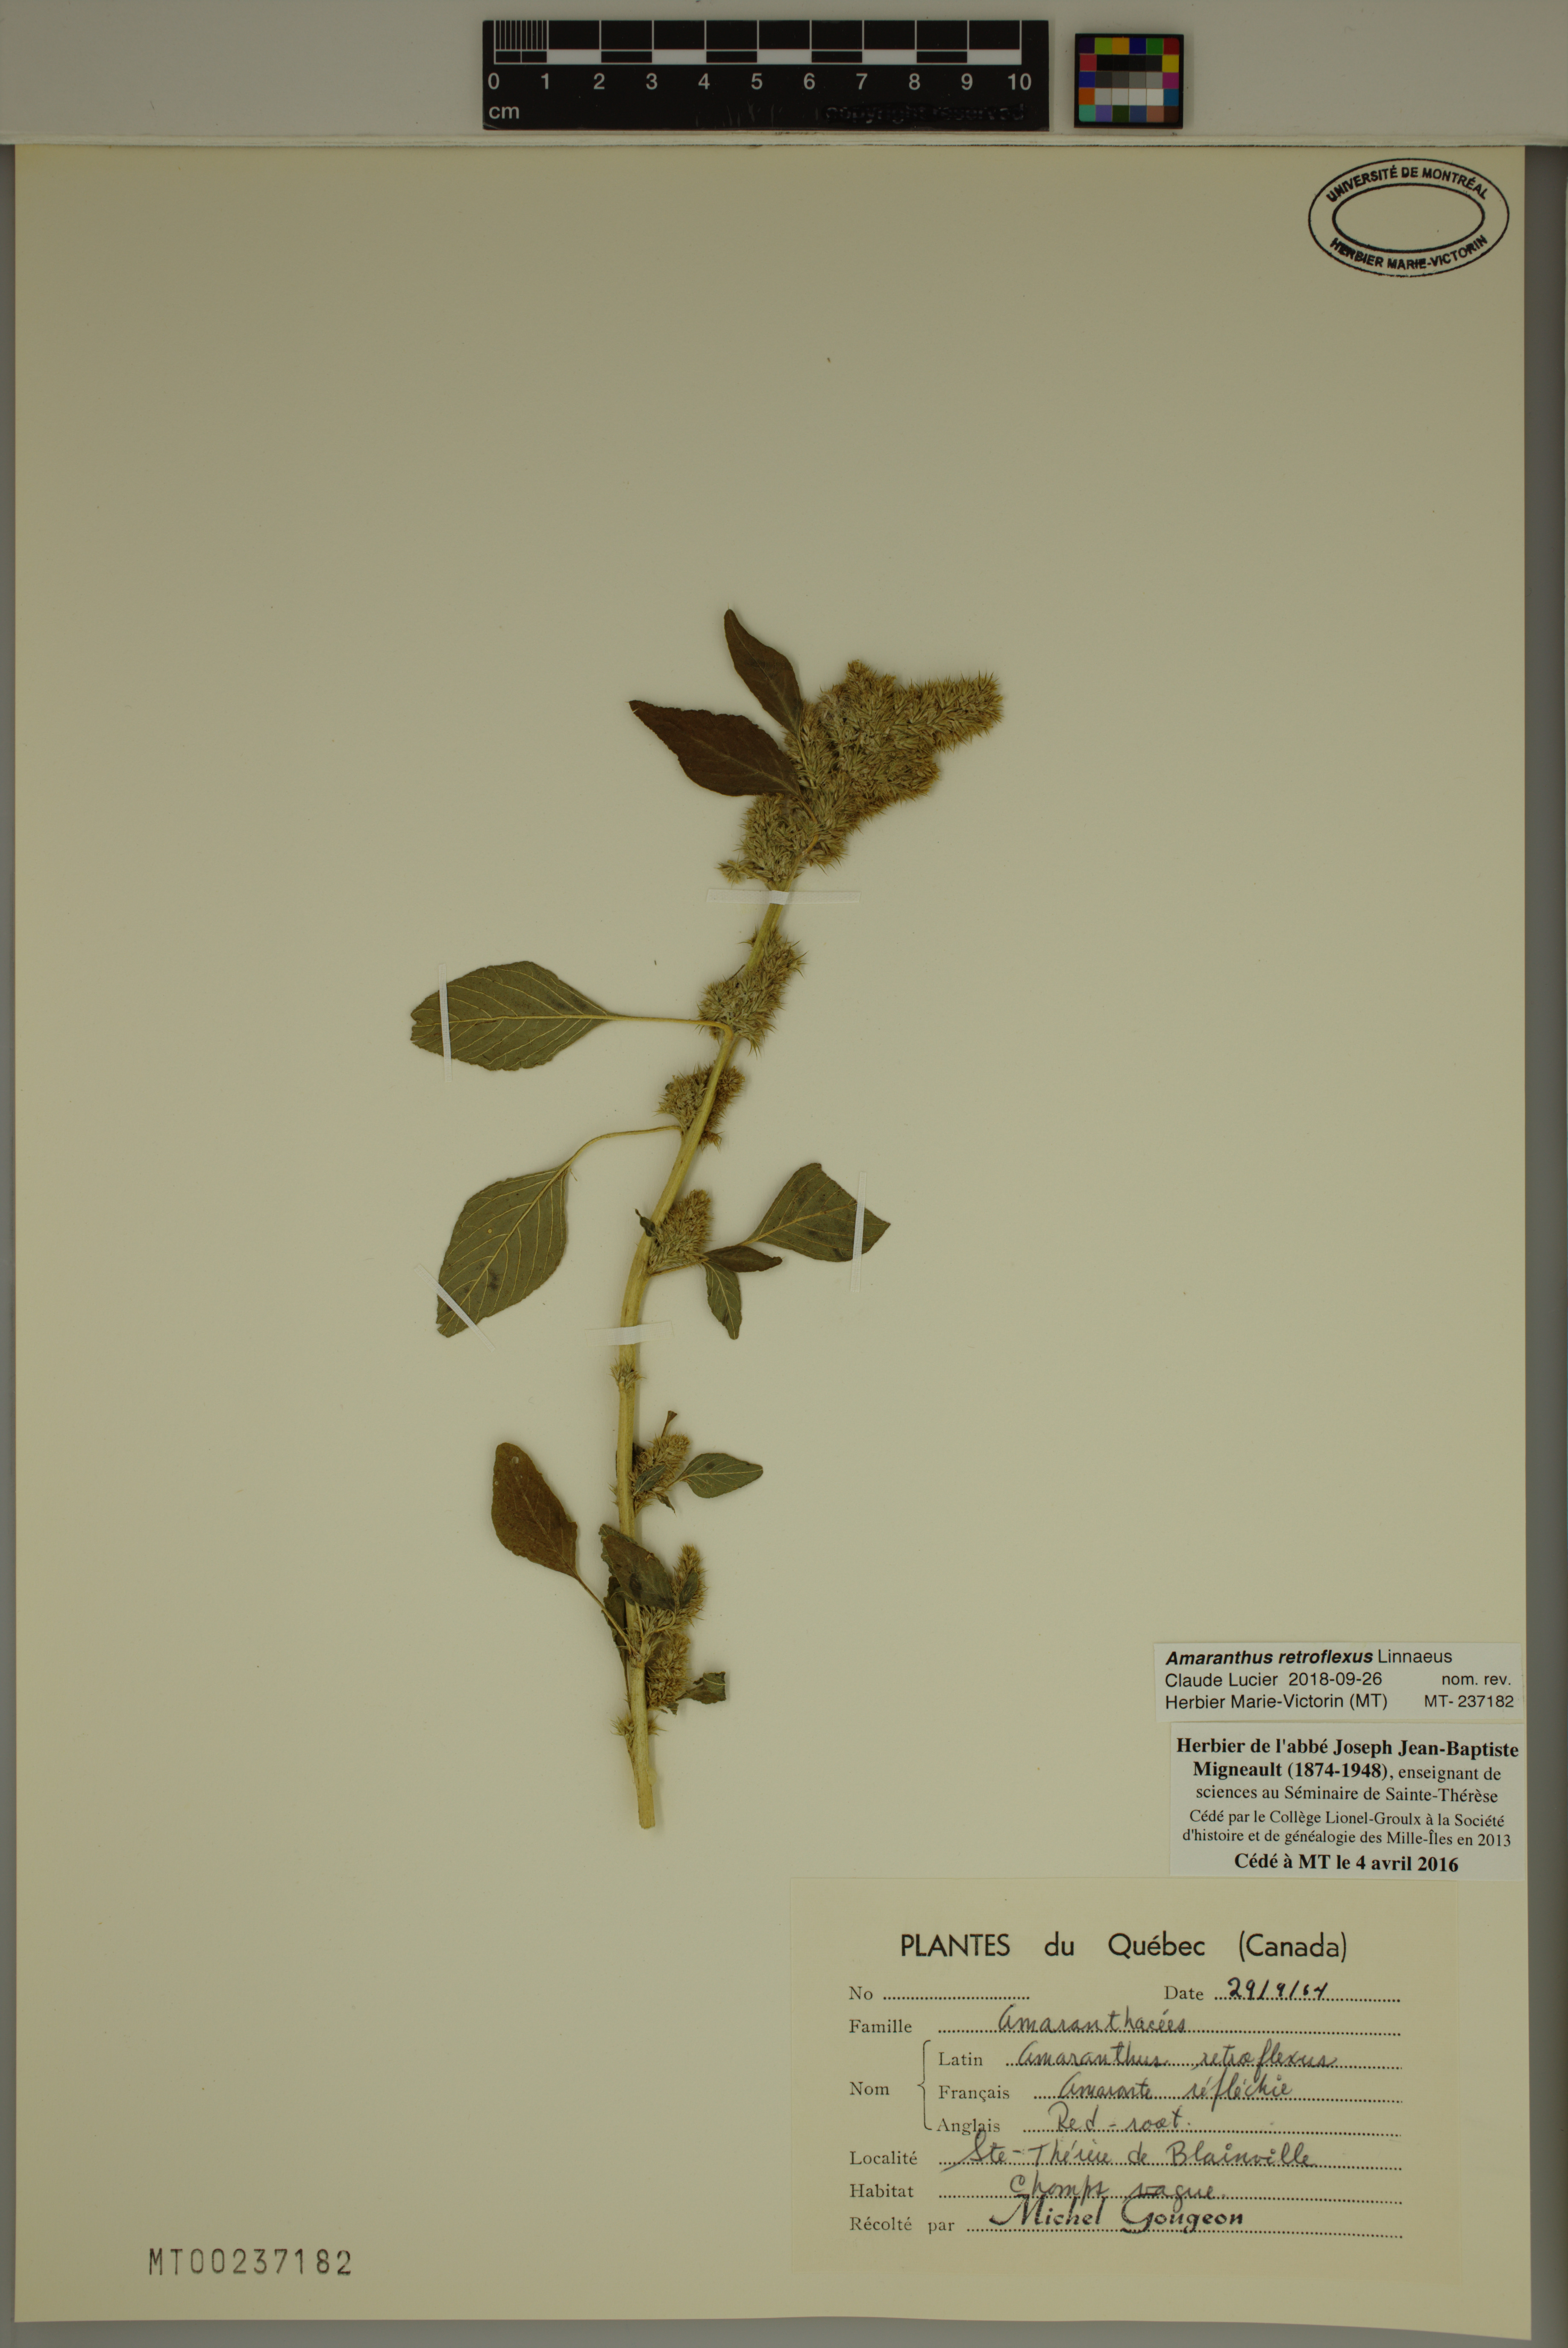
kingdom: Plantae
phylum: Tracheophyta
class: Magnoliopsida
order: Caryophyllales
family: Amaranthaceae
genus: Amaranthus
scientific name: Amaranthus retroflexus
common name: Redroot amaranth
